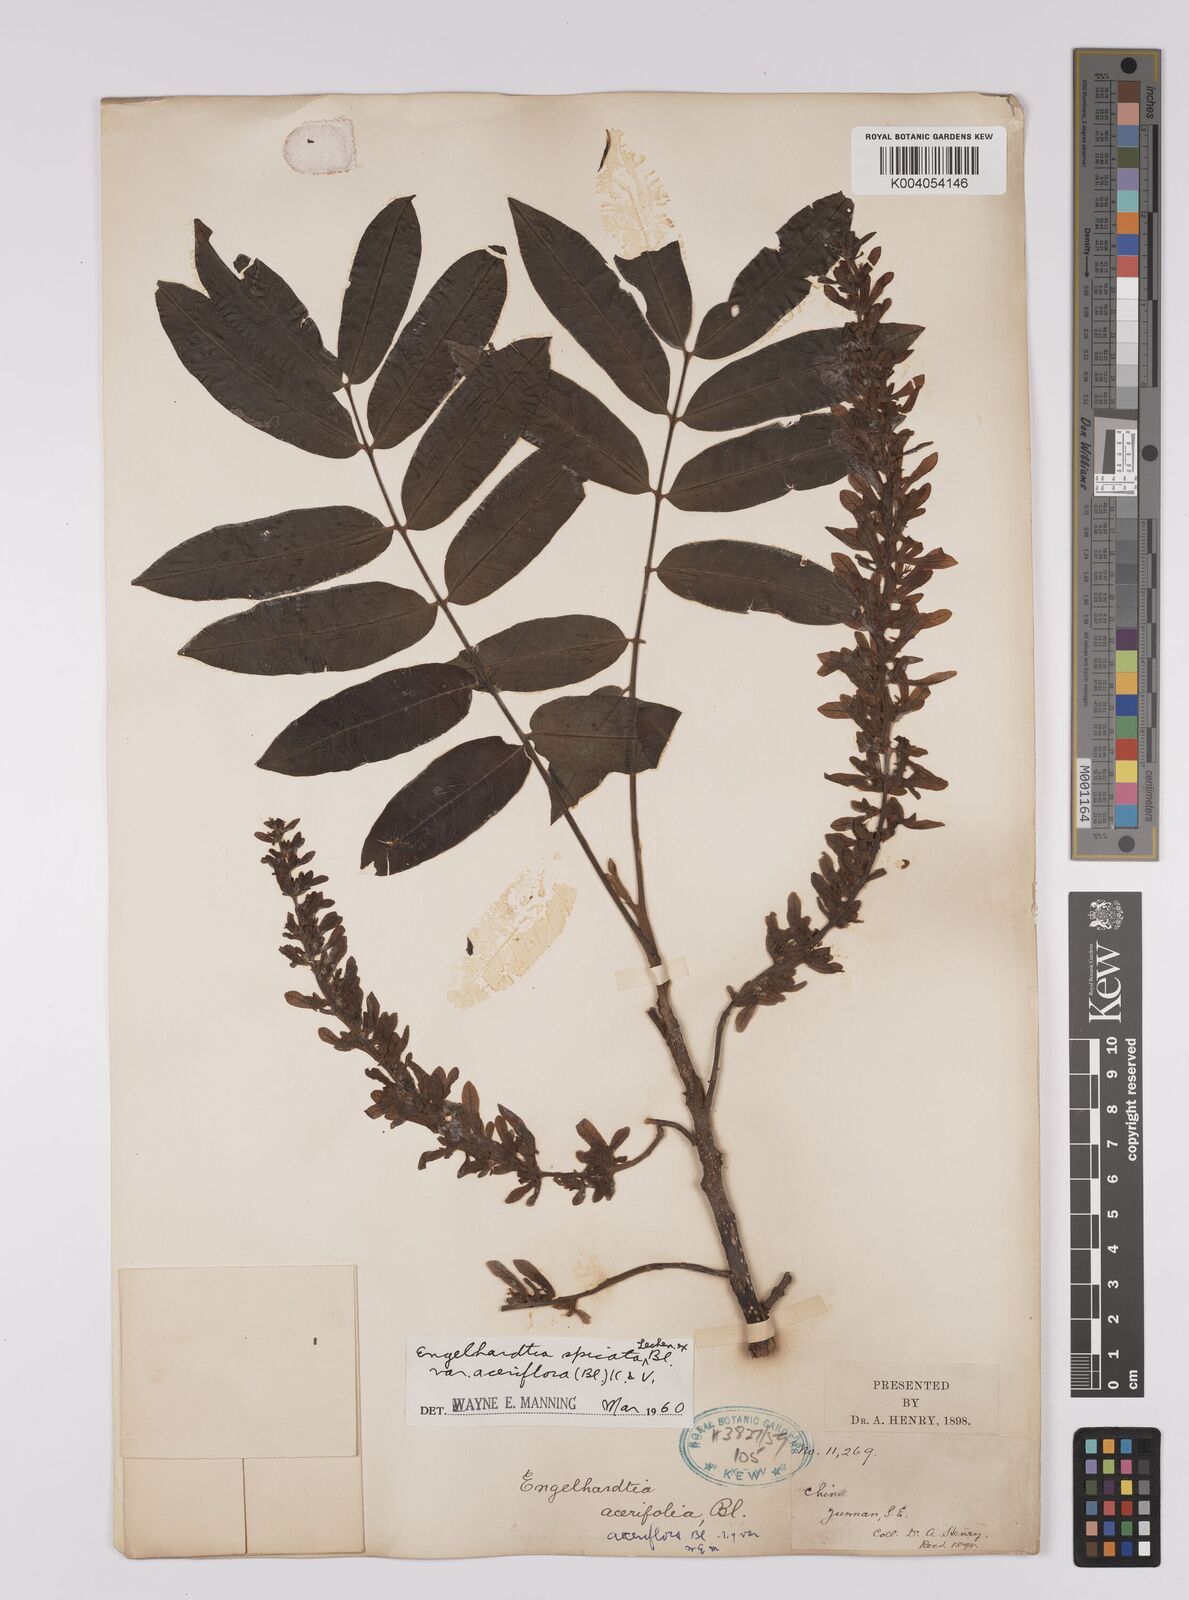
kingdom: Plantae
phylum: Tracheophyta
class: Magnoliopsida
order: Fagales
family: Juglandaceae
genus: Engelhardia
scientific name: Engelhardia spicata
